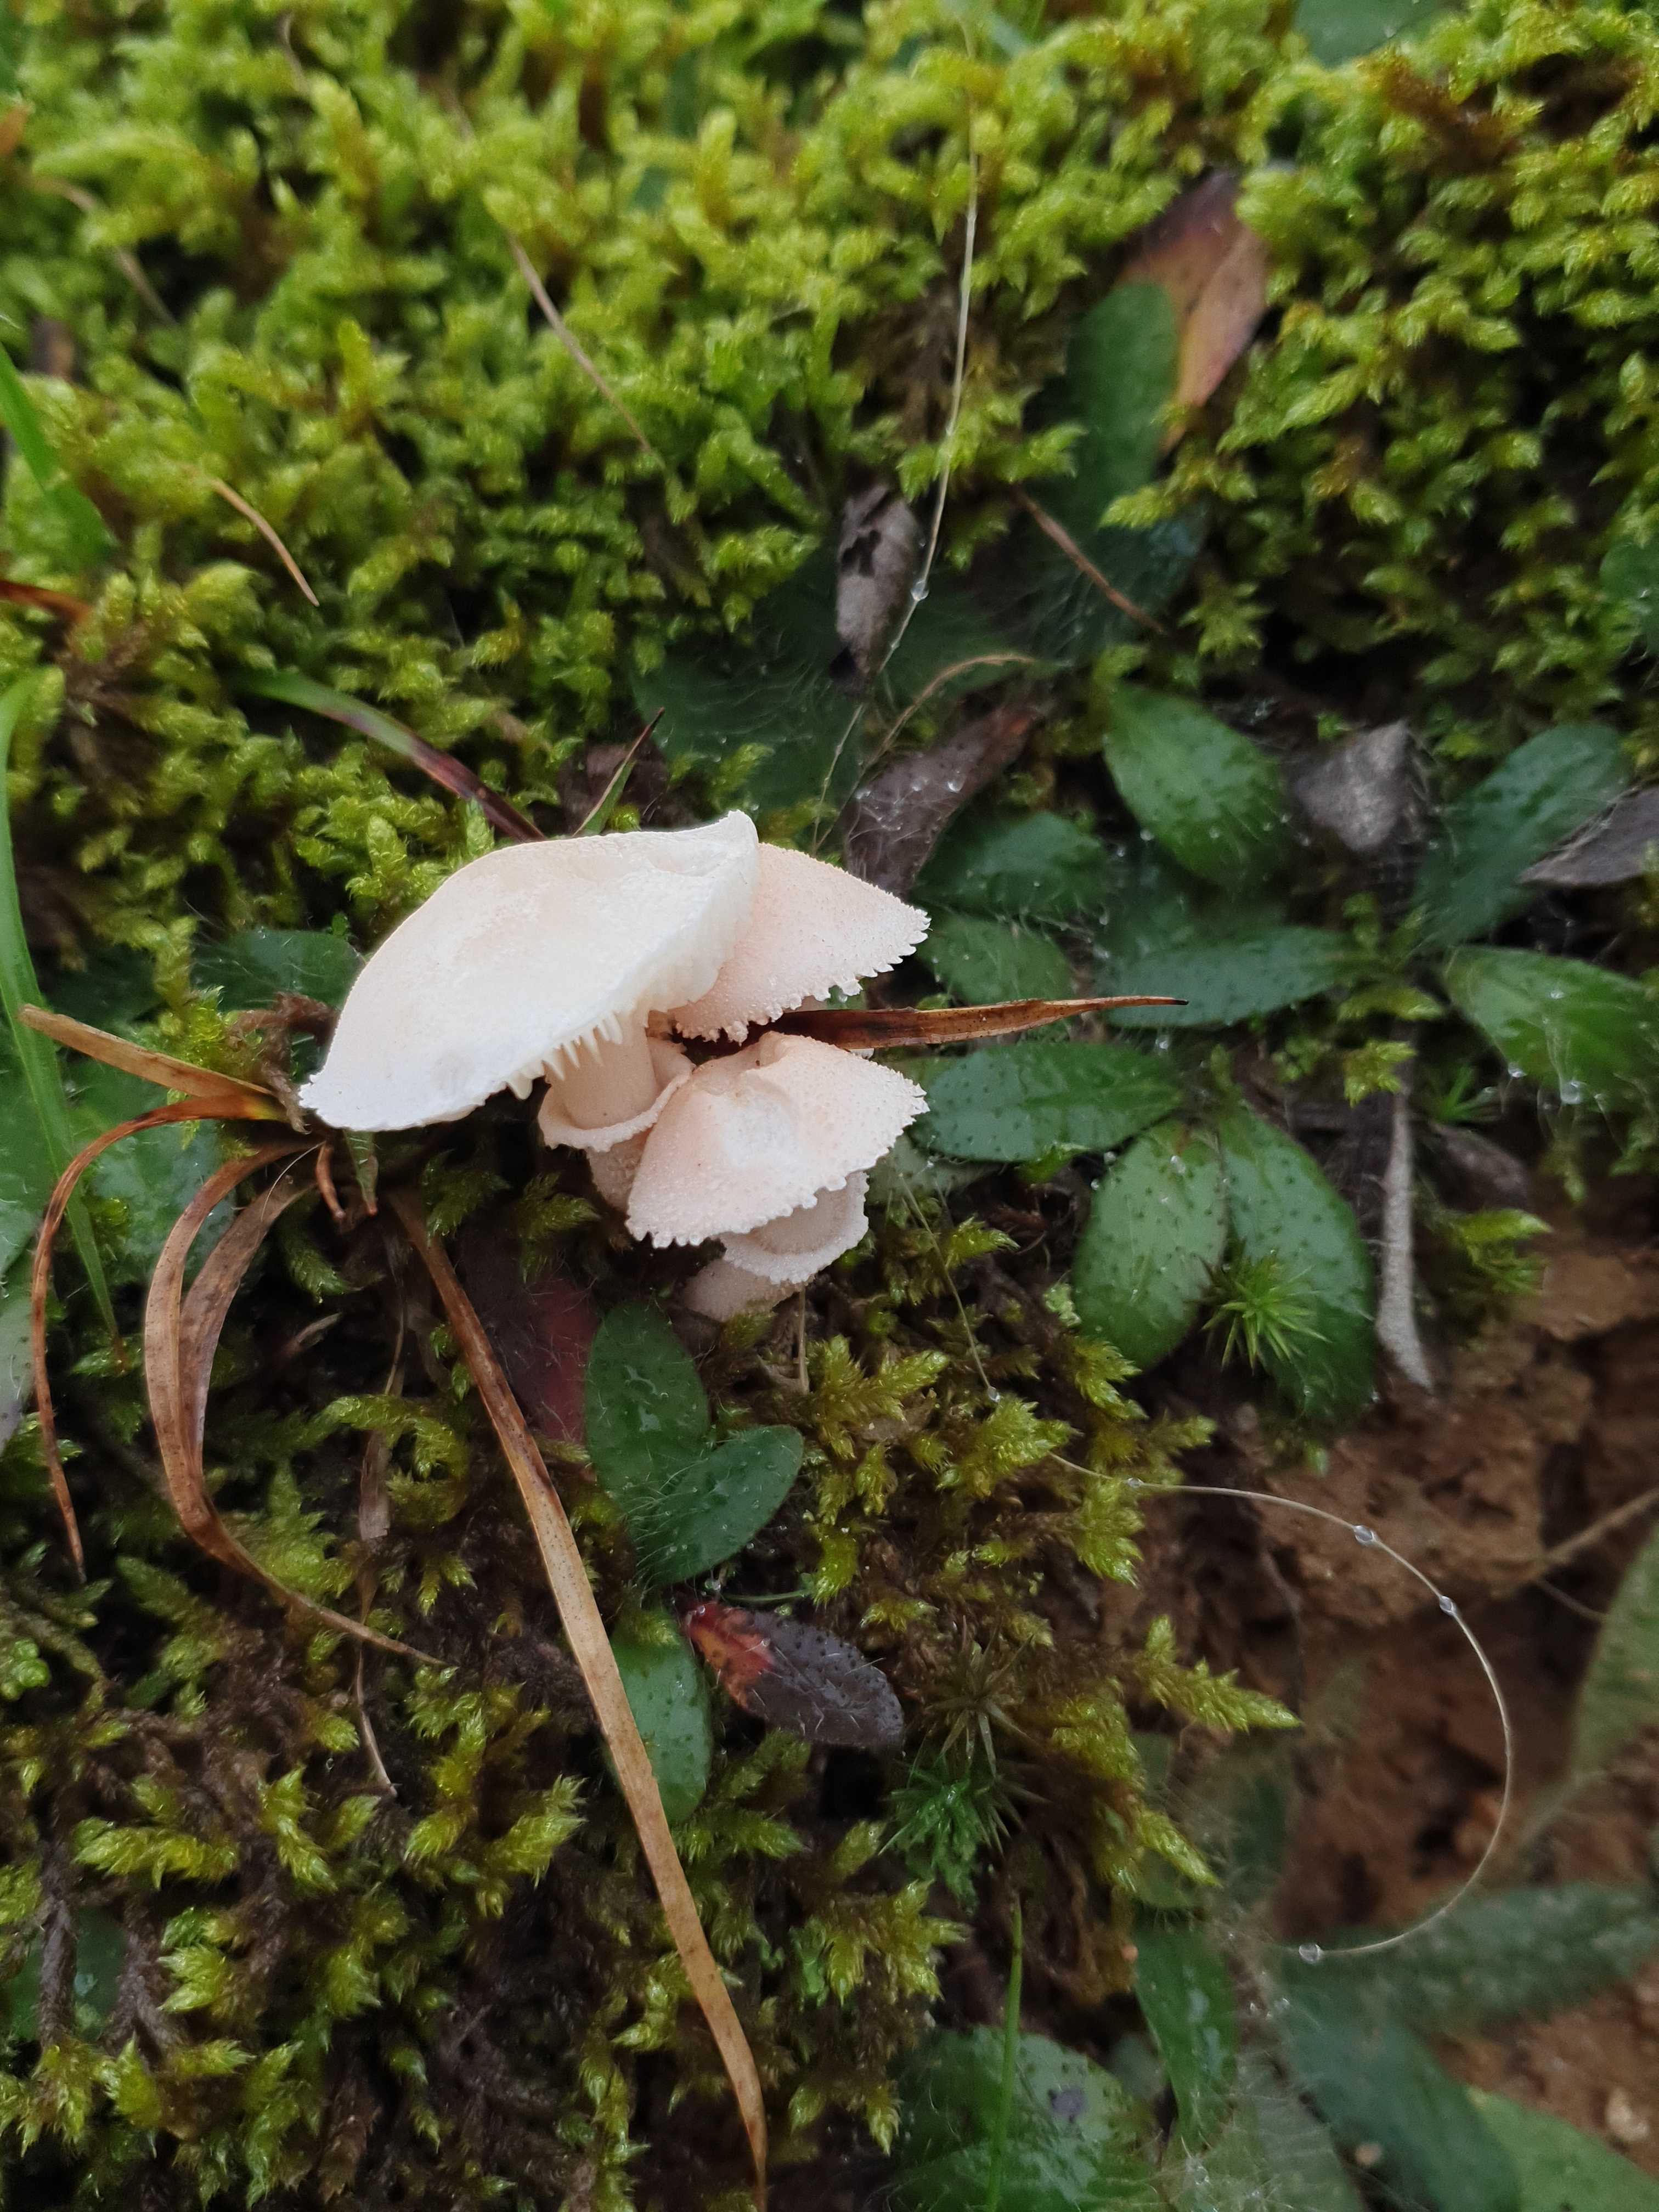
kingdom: Fungi
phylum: Basidiomycota
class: Agaricomycetes
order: Agaricales
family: Tricholomataceae
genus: Cystoderma
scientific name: Cystoderma carcharias
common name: rødgrå grynhat
